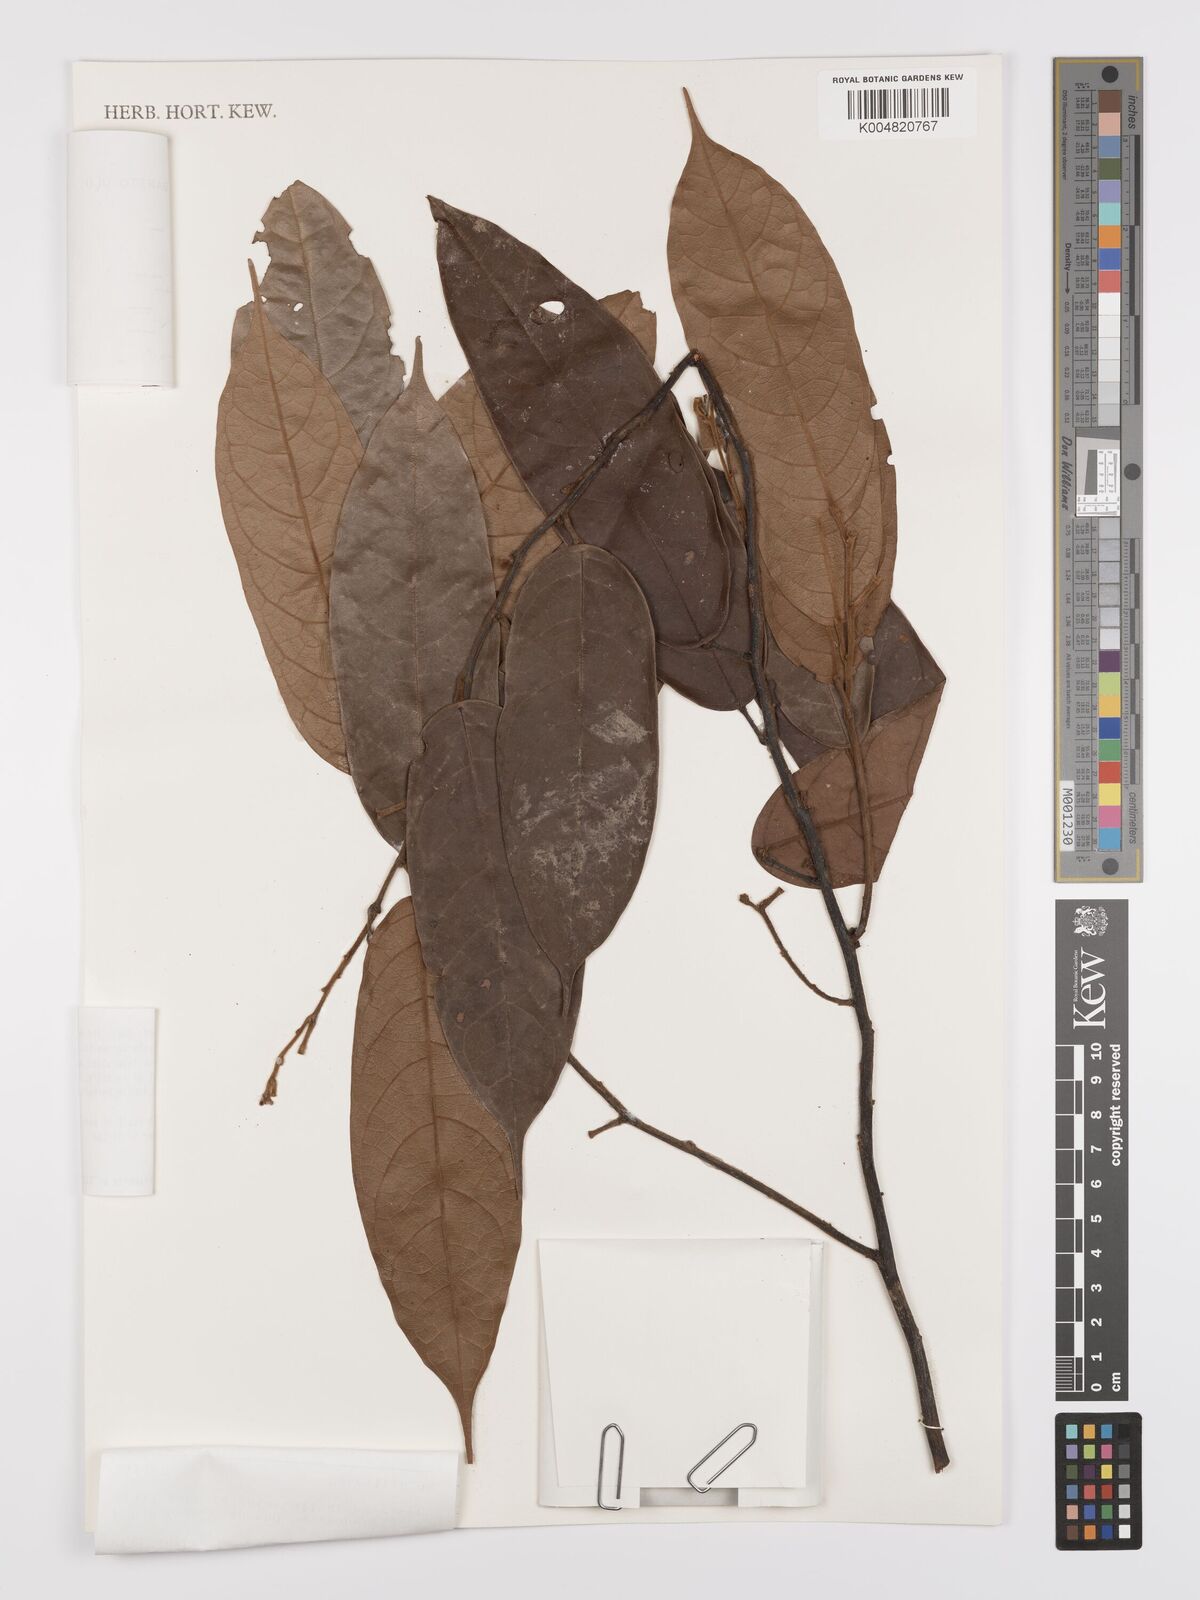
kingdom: Plantae
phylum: Tracheophyta
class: Magnoliopsida
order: Oxalidales
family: Connaraceae
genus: Ellipanthus
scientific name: Ellipanthus beccarii
